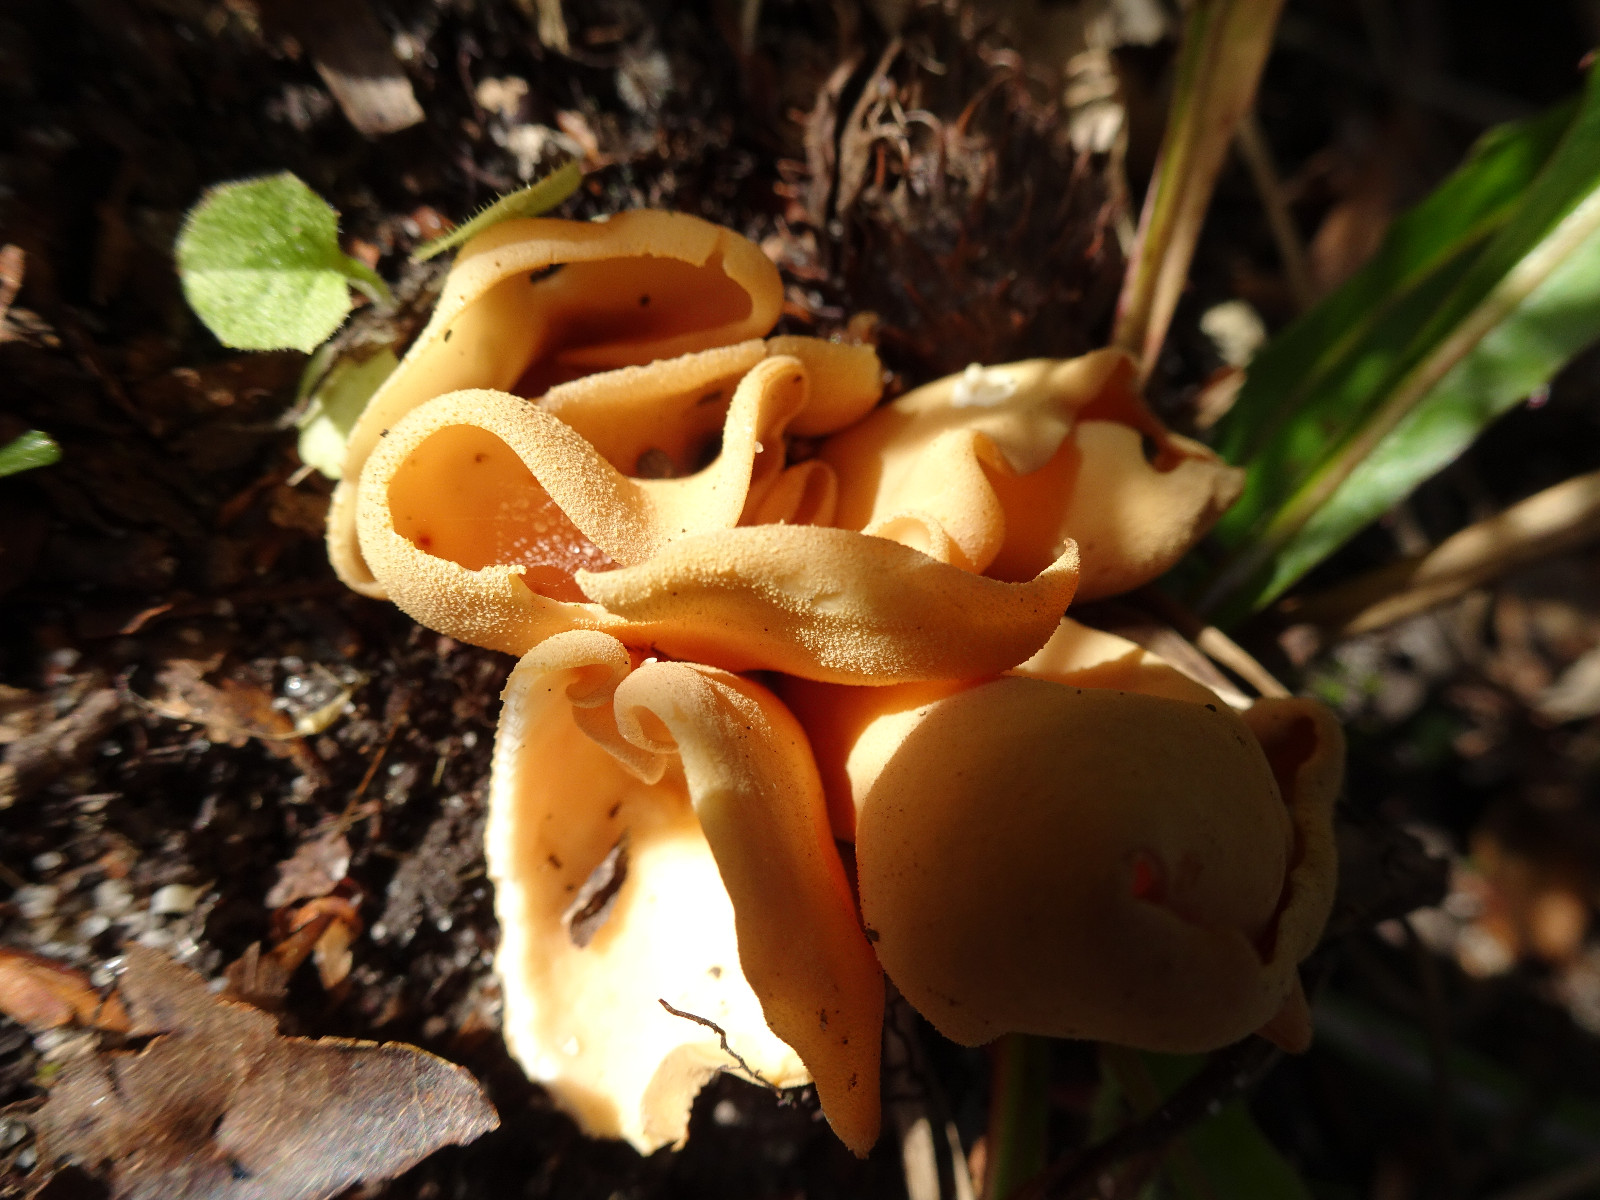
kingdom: Fungi
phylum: Ascomycota
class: Pezizomycetes
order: Pezizales
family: Otideaceae
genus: Otidea
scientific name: Otidea onotica
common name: æsel-ørebæger
